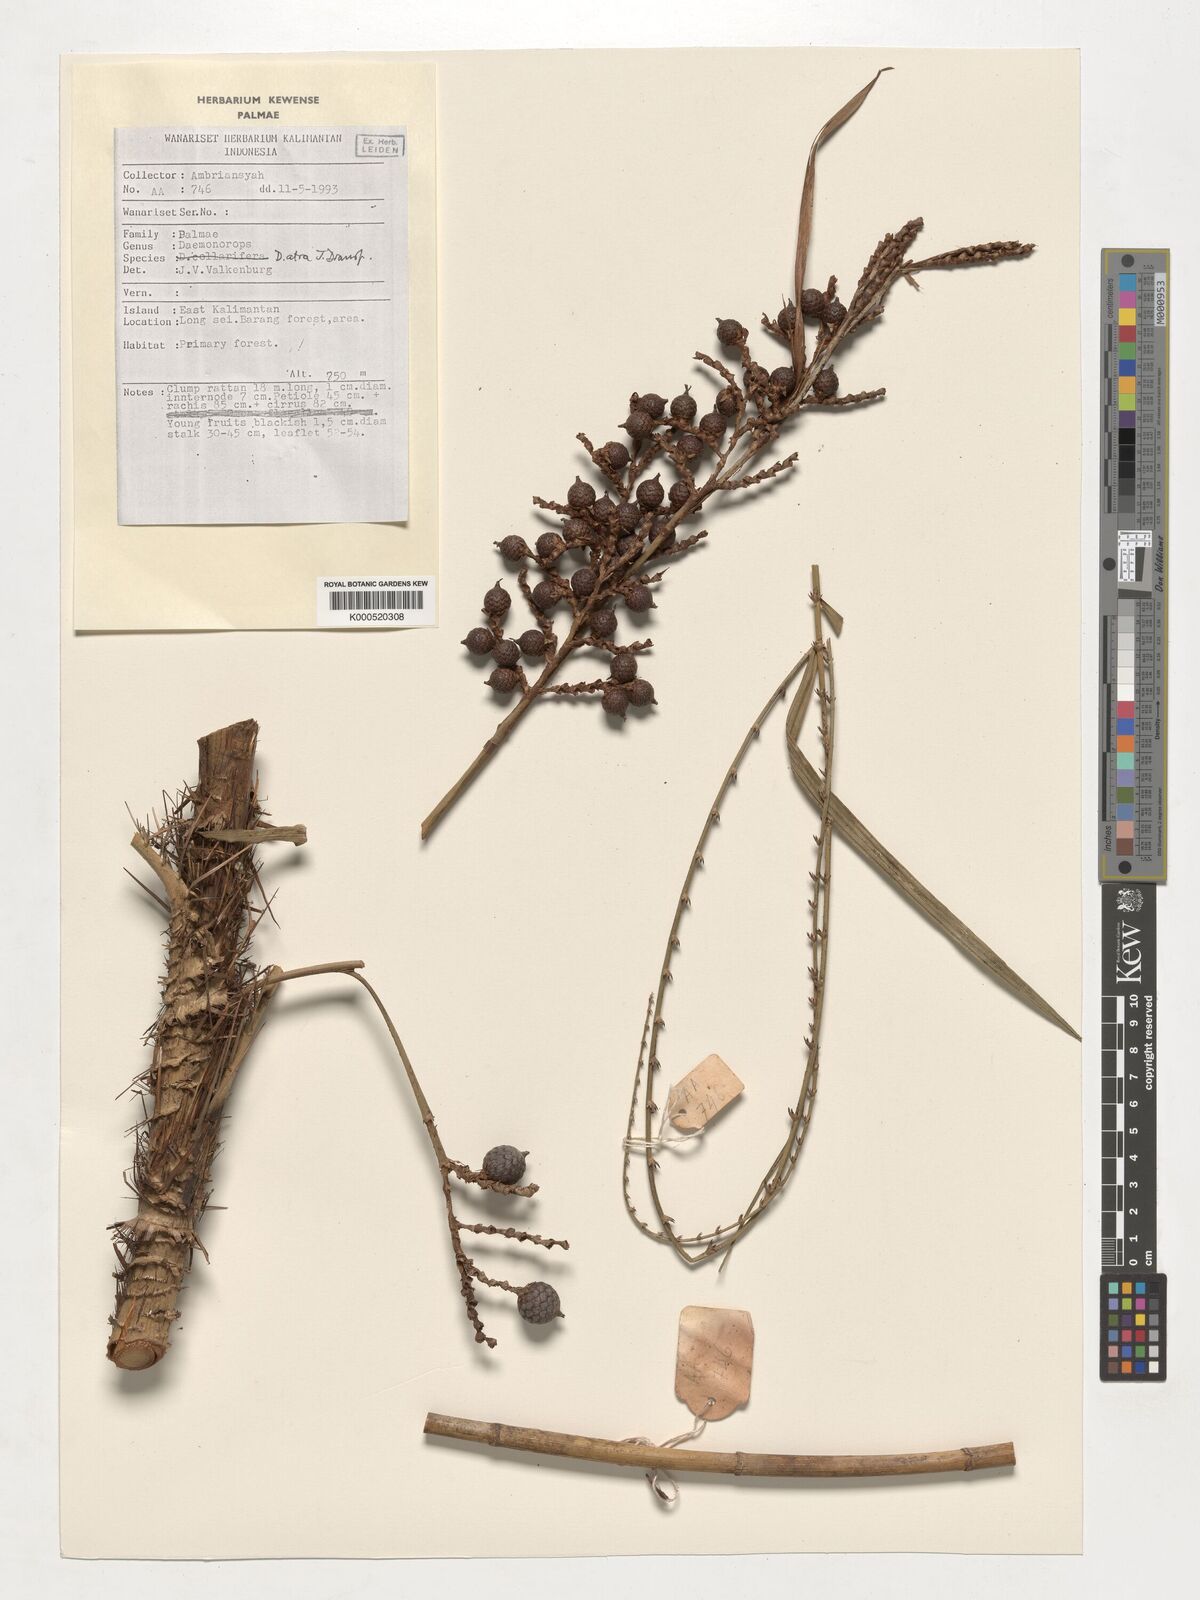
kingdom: Plantae
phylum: Tracheophyta
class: Liliopsida
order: Arecales
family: Arecaceae
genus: Calamus
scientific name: Calamus ater
